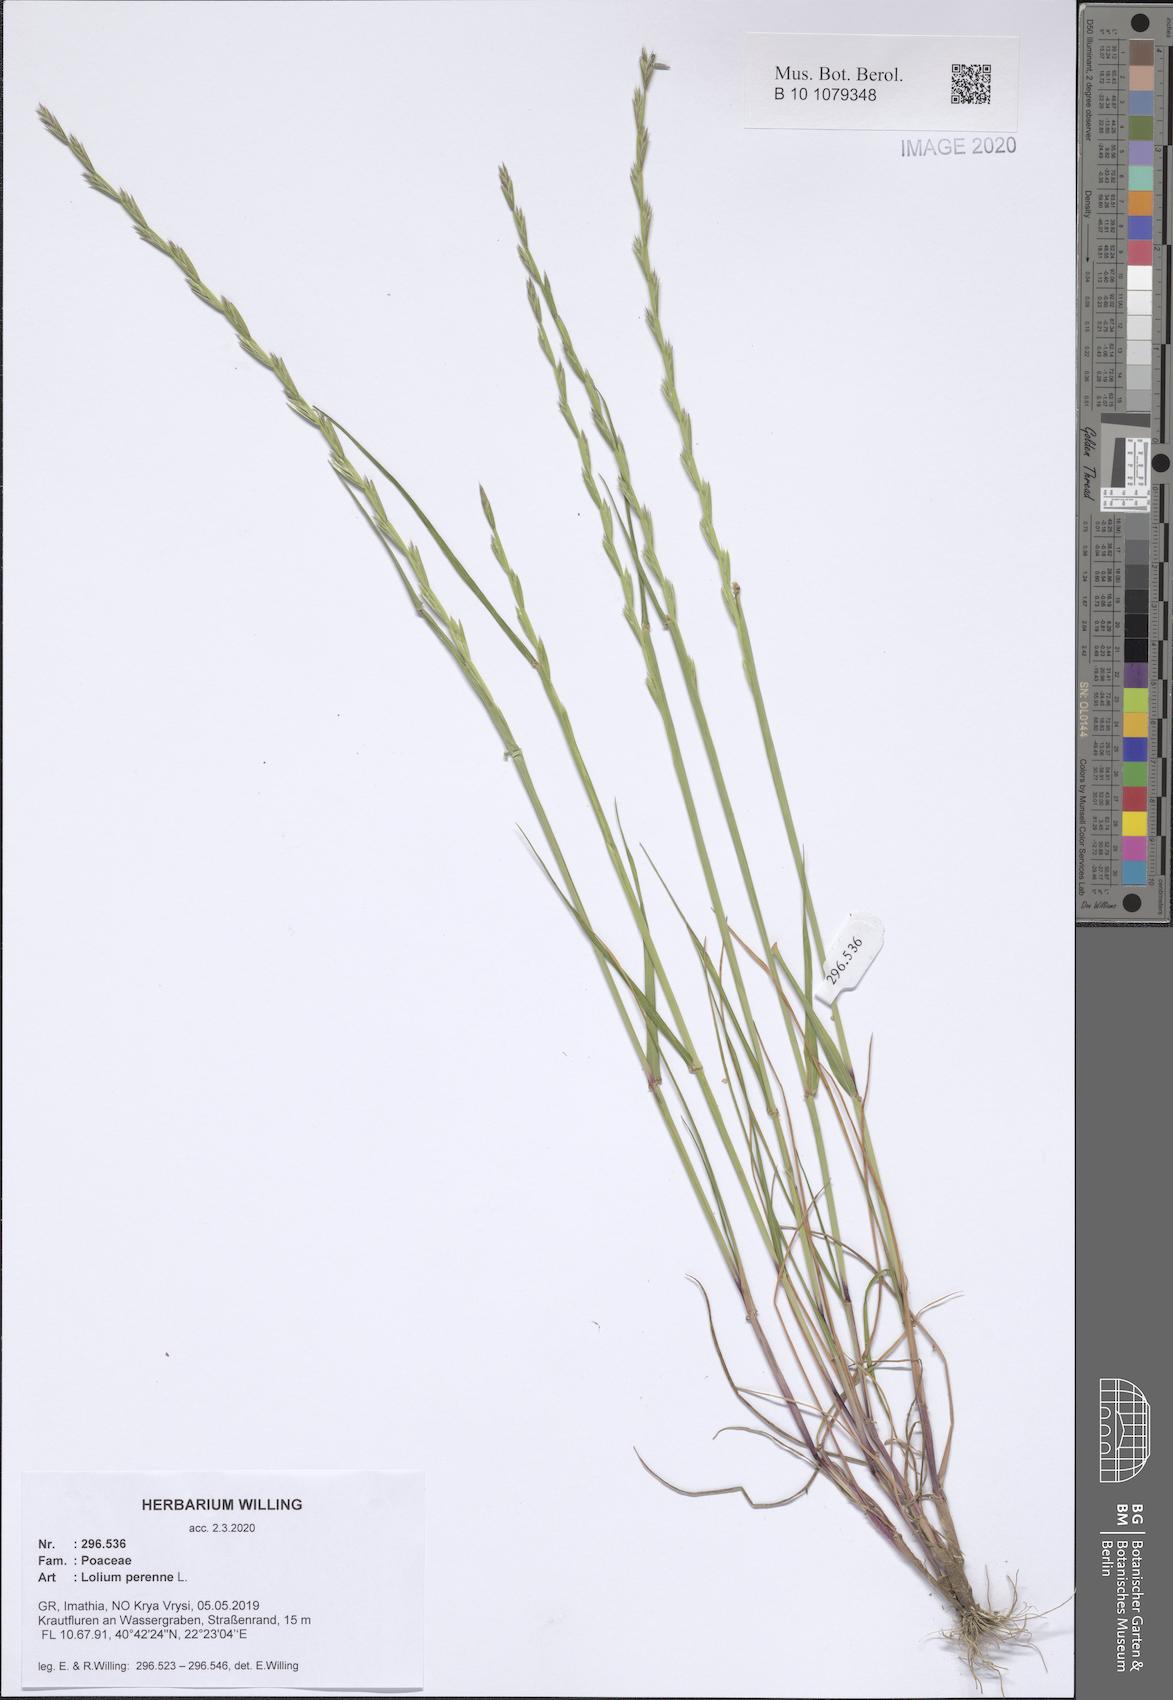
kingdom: Plantae
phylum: Tracheophyta
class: Liliopsida
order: Poales
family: Poaceae
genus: Lolium
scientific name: Lolium perenne
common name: Perennial ryegrass
